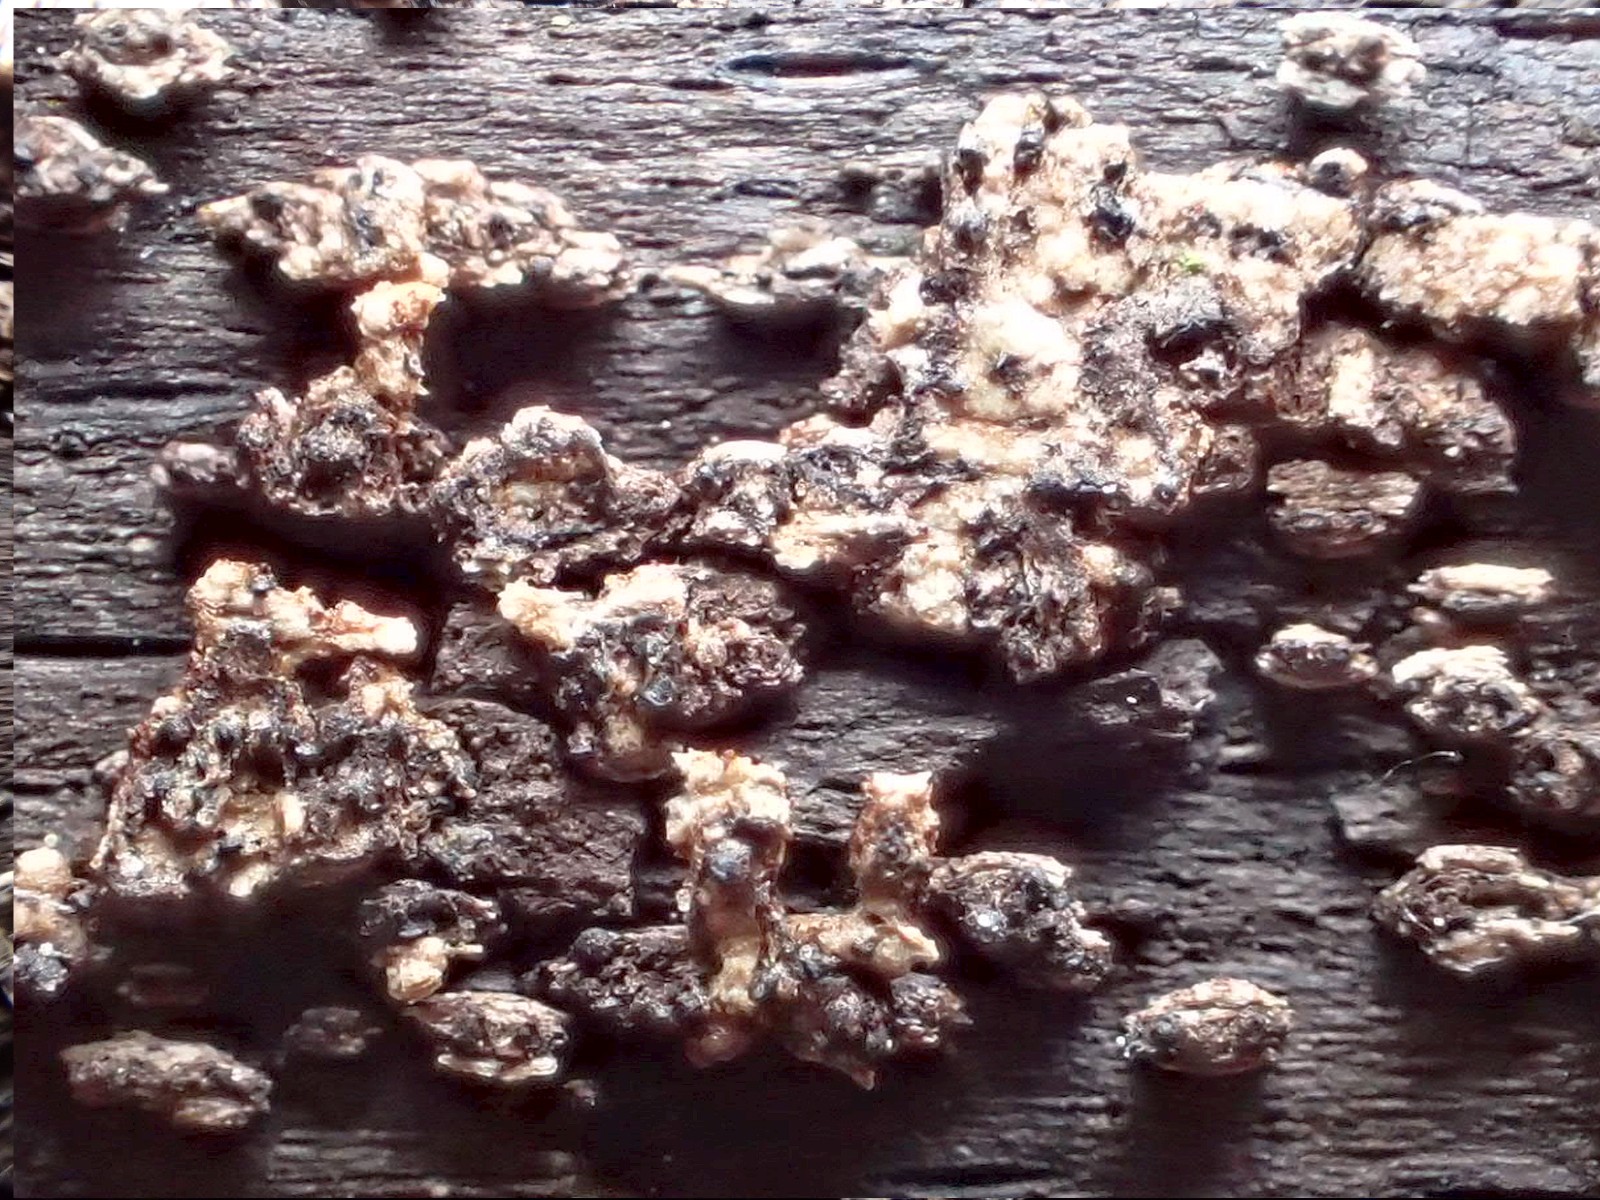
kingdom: Fungi
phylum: Ascomycota
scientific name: Ascomycota
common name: sæksvampe
